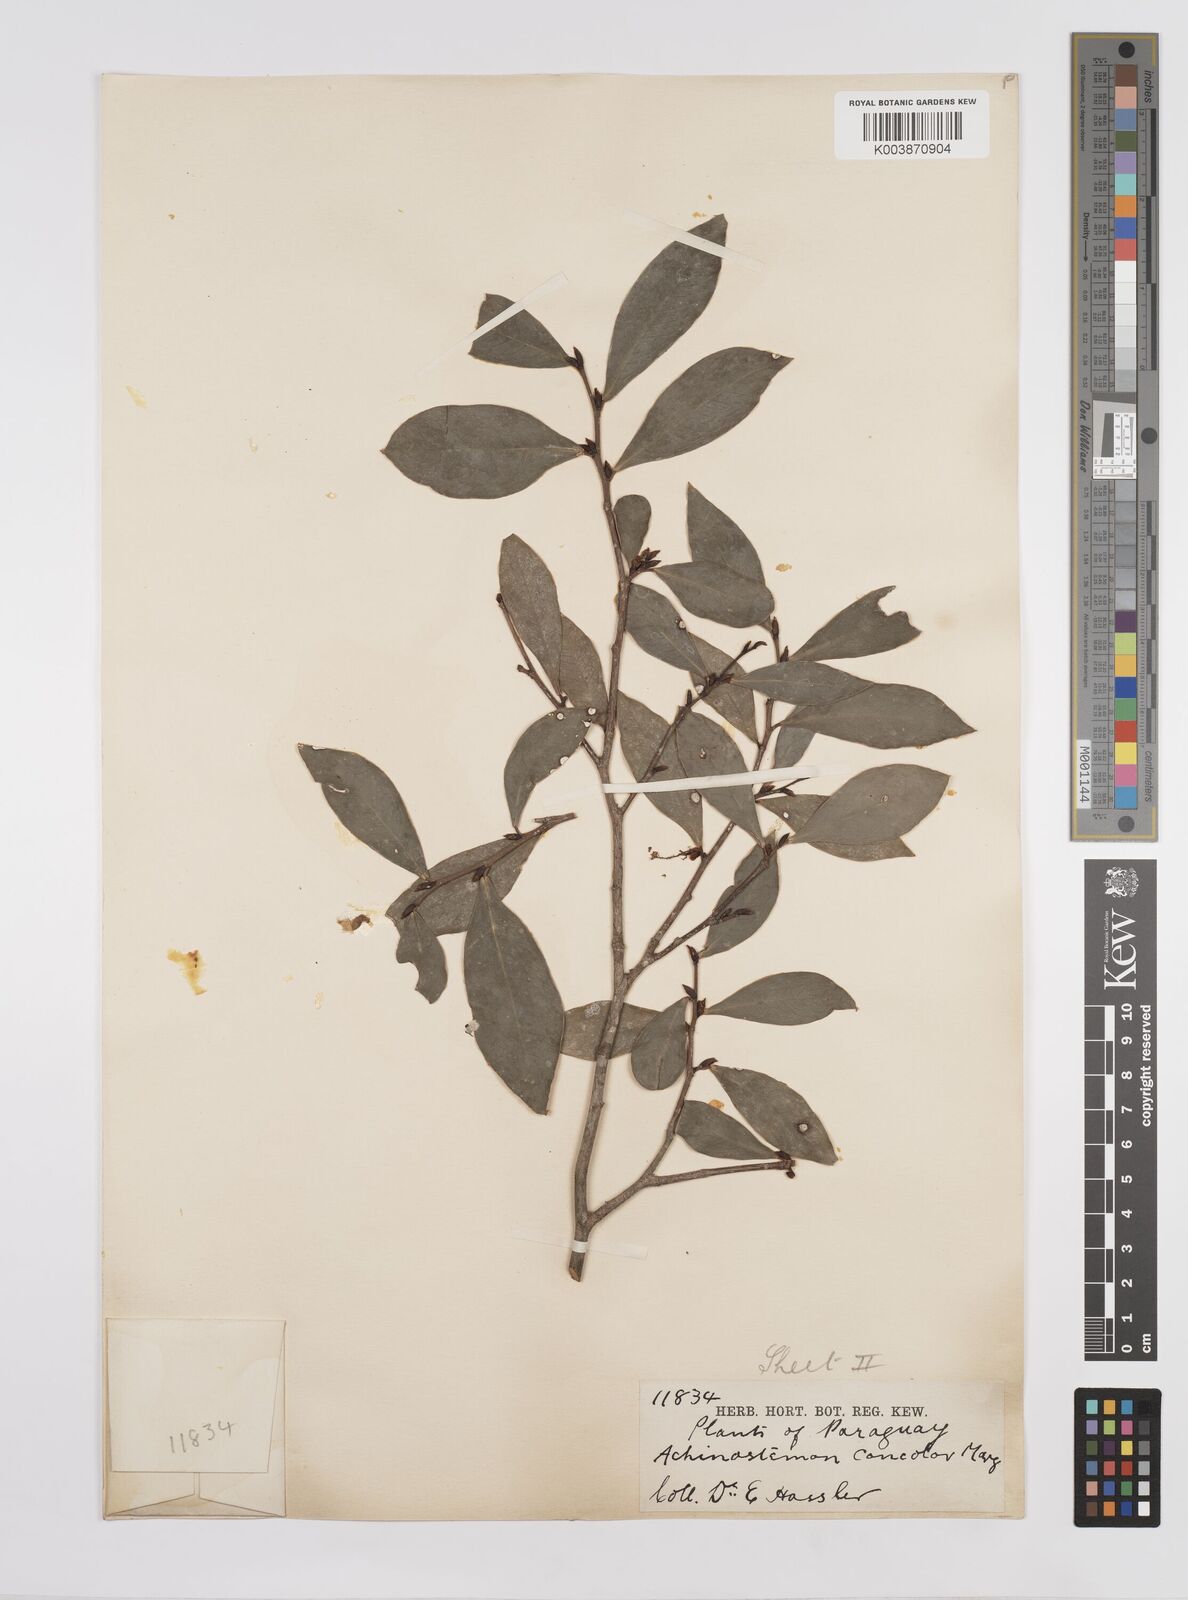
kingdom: Plantae
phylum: Tracheophyta
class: Magnoliopsida
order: Malpighiales
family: Euphorbiaceae
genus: Actinostemon
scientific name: Actinostemon concolor
